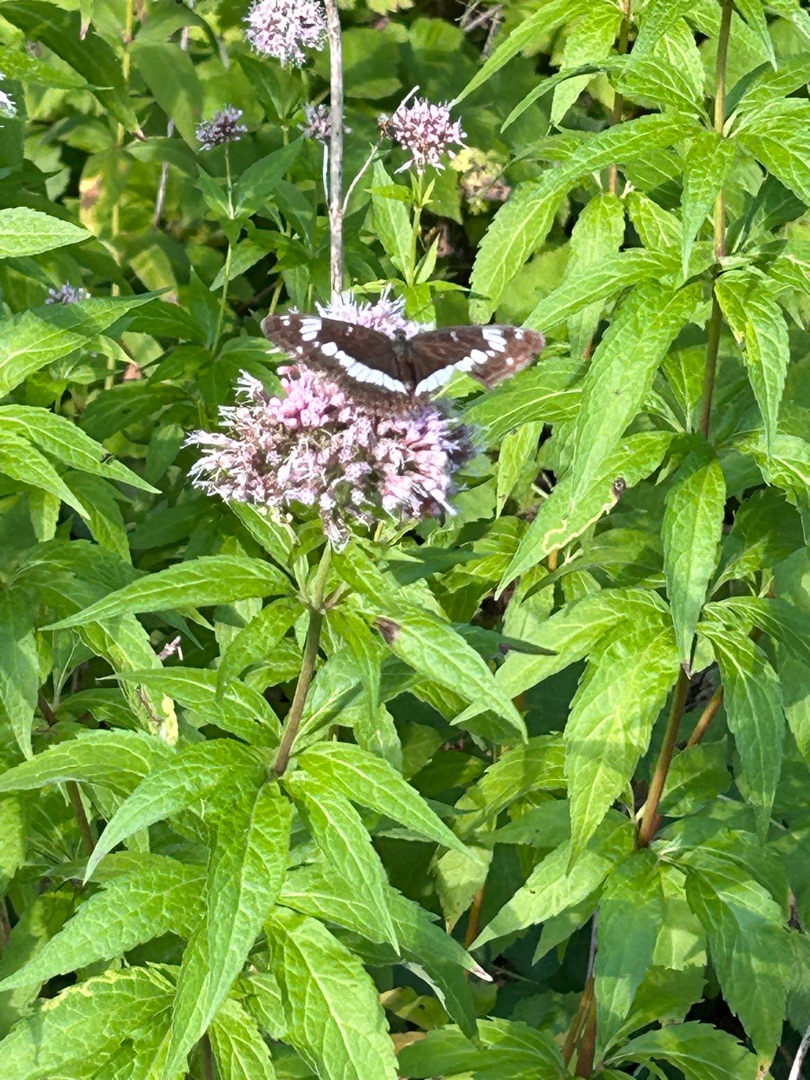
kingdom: Animalia
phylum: Arthropoda
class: Insecta
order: Lepidoptera
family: Nymphalidae
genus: Ladoga
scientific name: Ladoga camilla
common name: Hvid admiral
